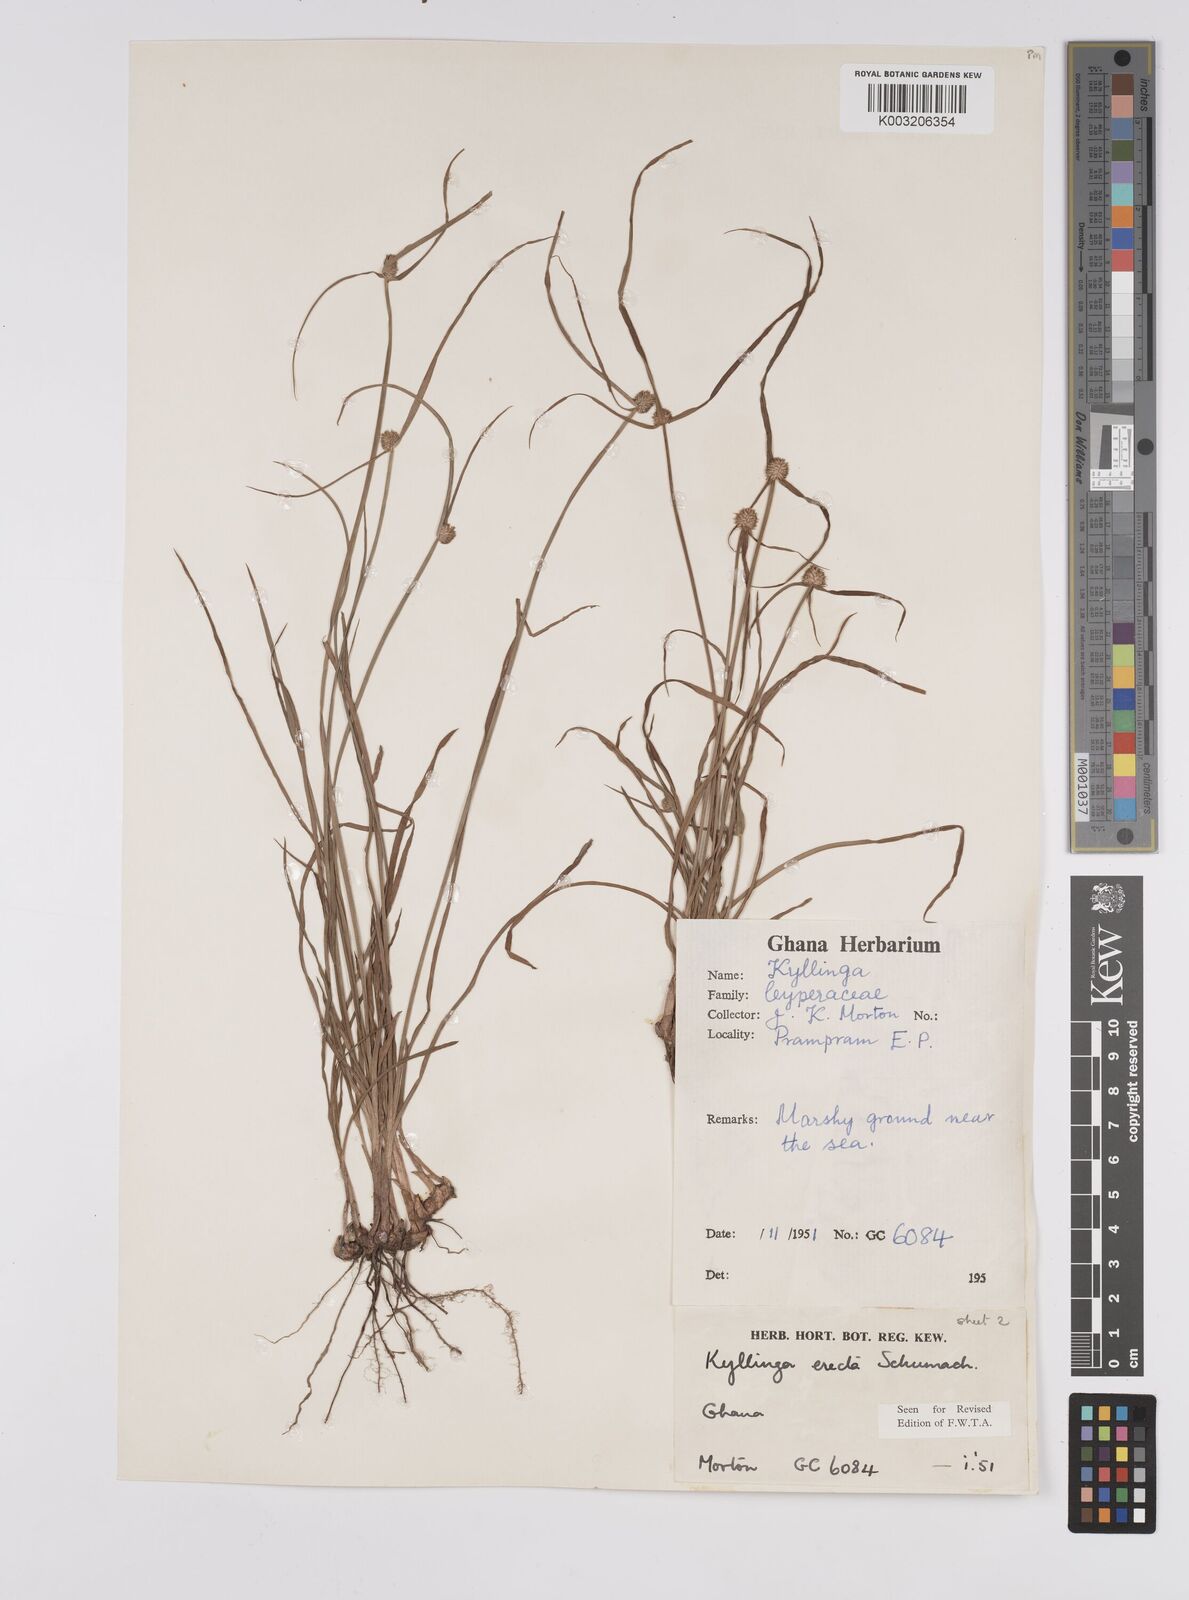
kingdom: Plantae
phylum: Tracheophyta
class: Liliopsida
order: Poales
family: Cyperaceae
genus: Cyperus
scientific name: Cyperus erectus
